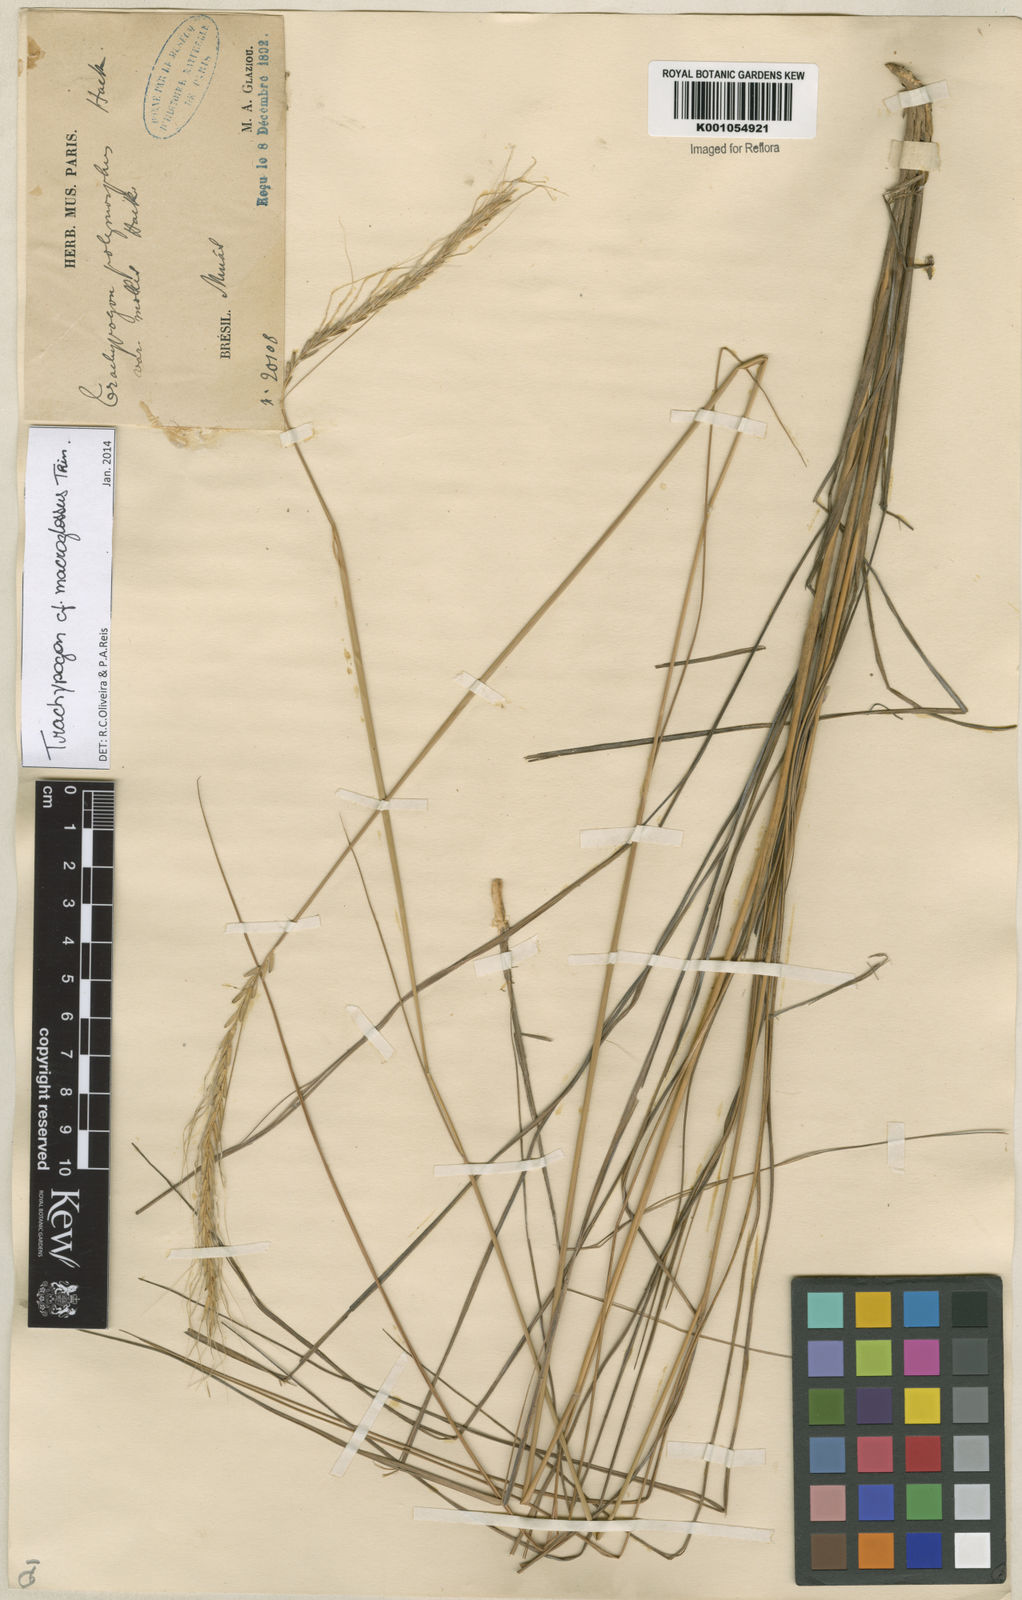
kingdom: Plantae
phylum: Tracheophyta
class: Liliopsida
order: Poales
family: Poaceae
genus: Trachypogon
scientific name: Trachypogon macroglossus
